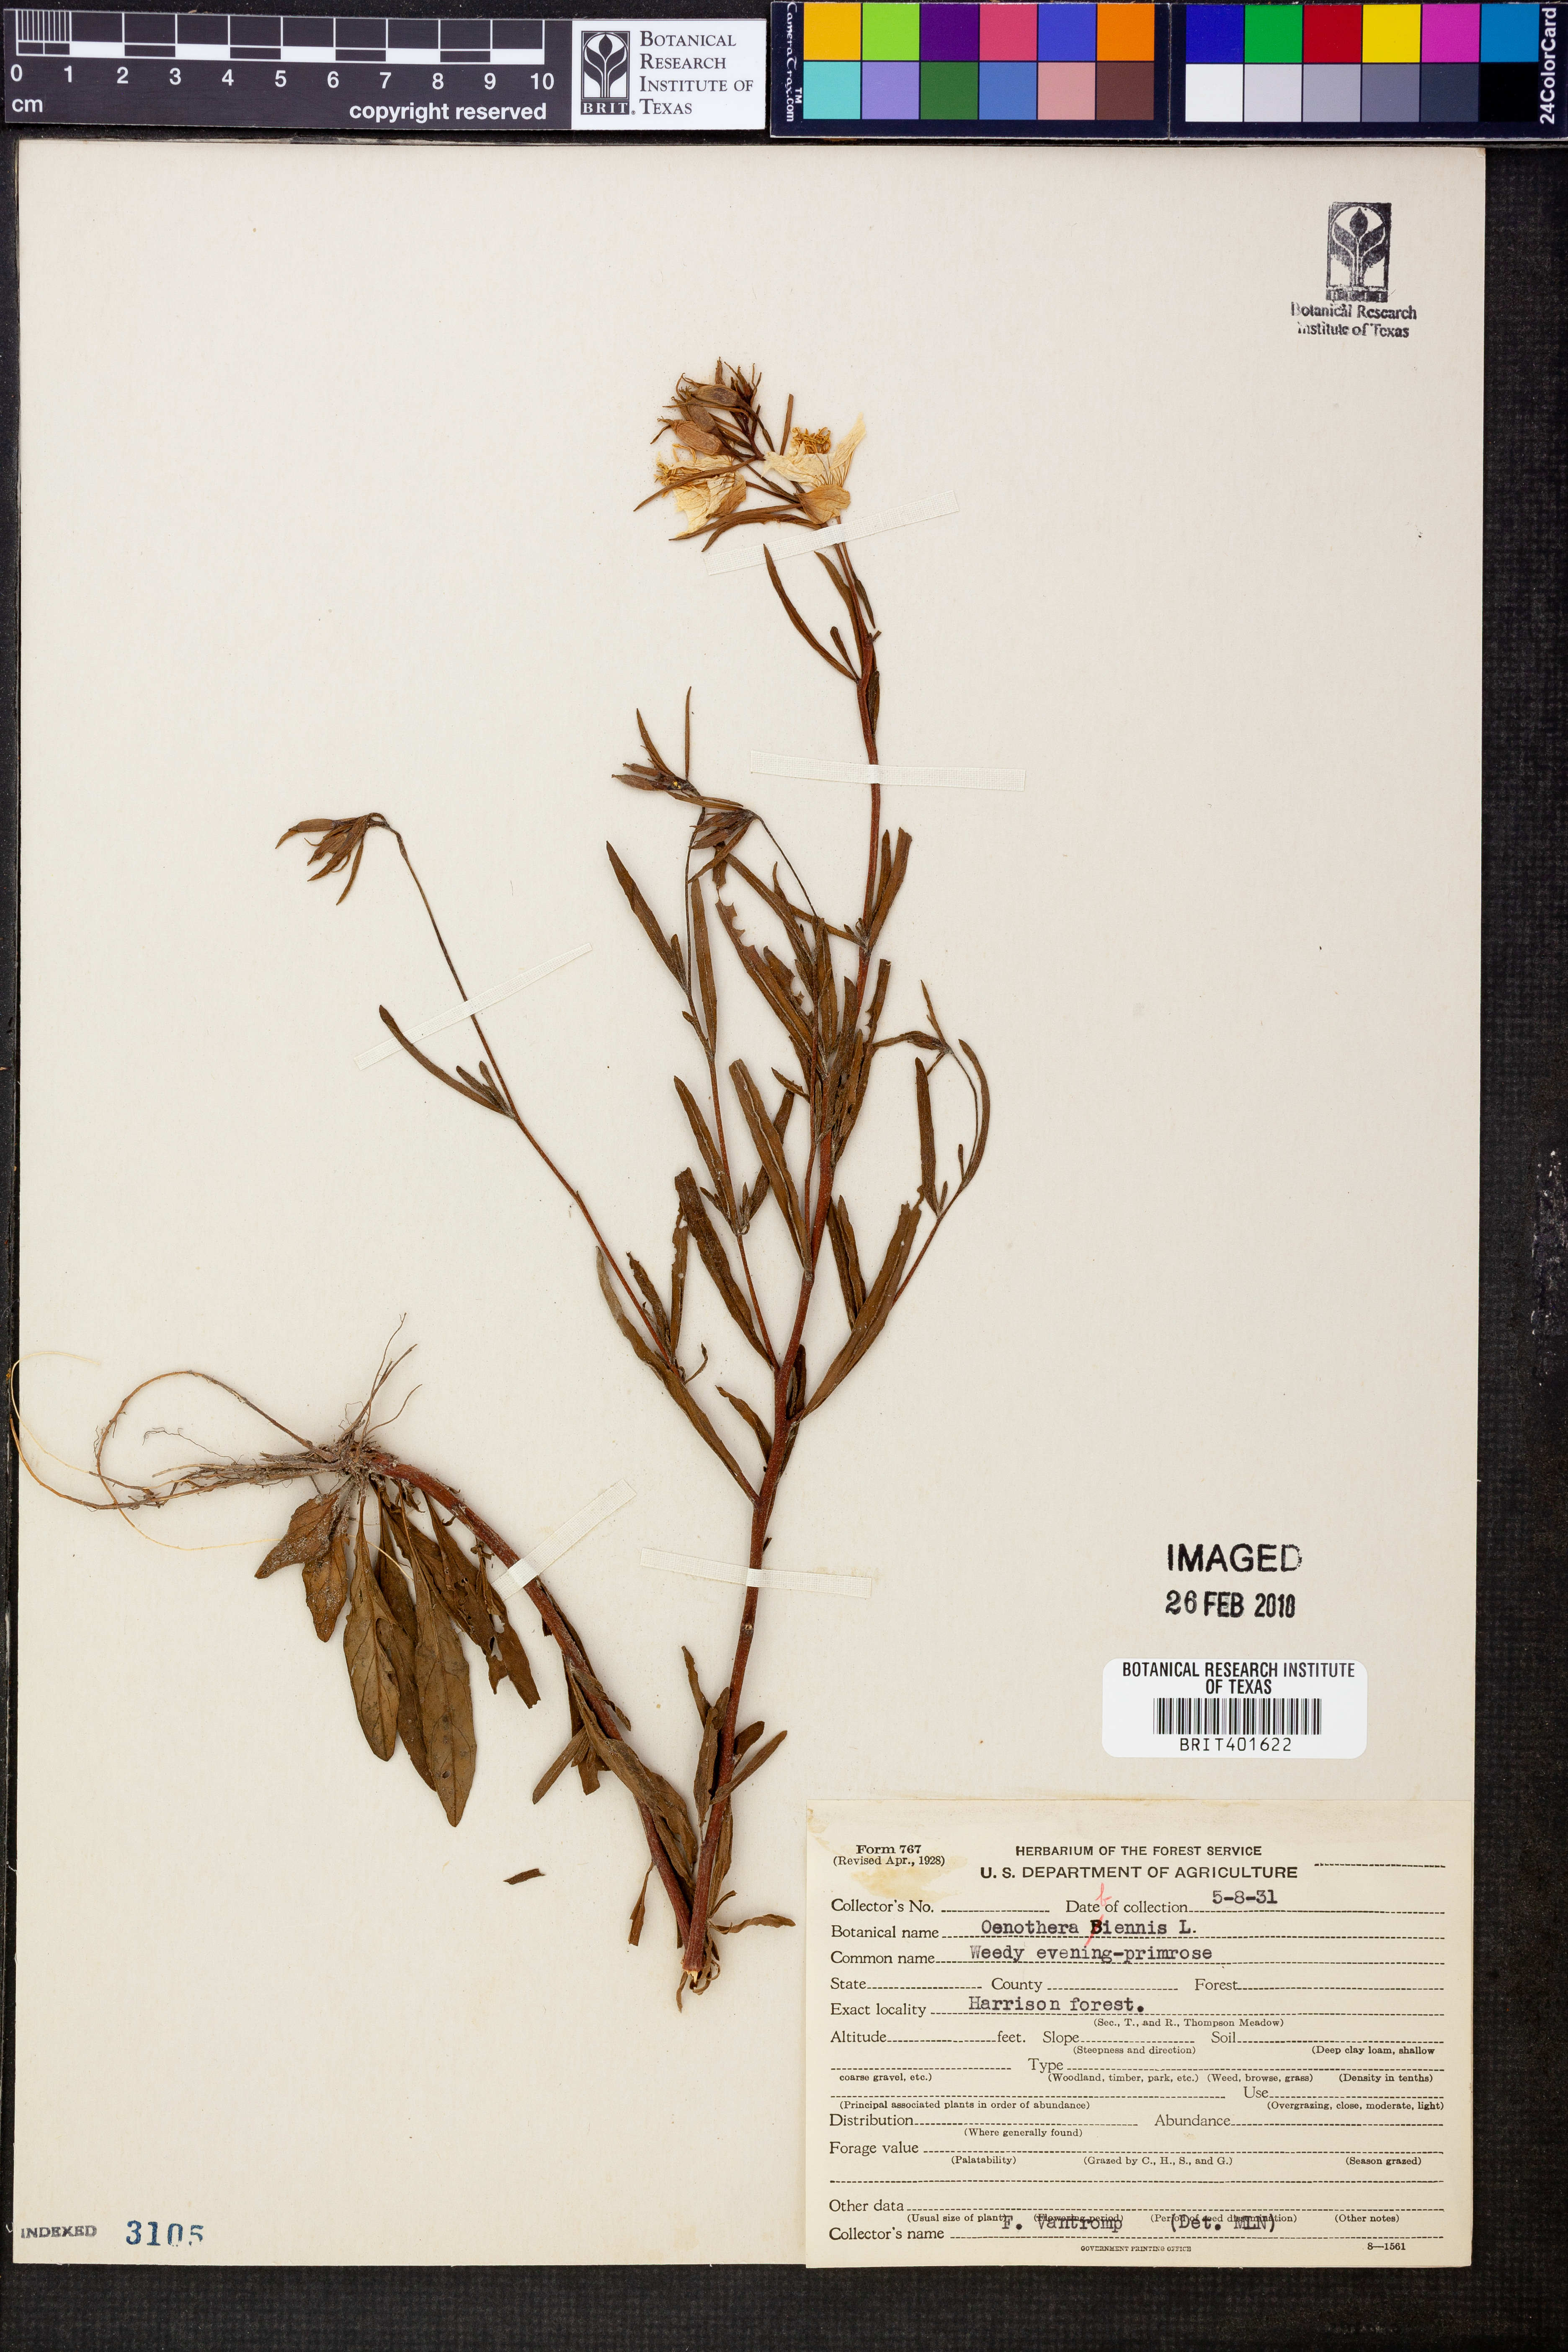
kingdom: Plantae
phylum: Tracheophyta
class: Magnoliopsida
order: Myrtales
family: Onagraceae
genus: Oenothera
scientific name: Oenothera biennis
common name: Common evening-primrose
